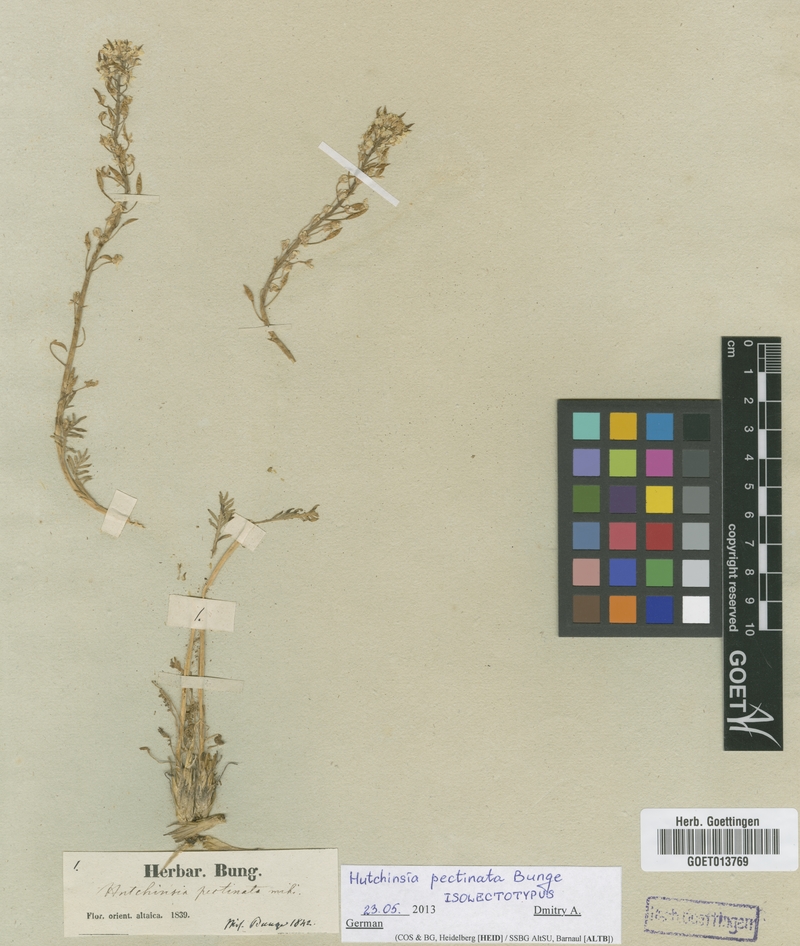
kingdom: Plantae
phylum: Tracheophyta
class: Magnoliopsida
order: Brassicales
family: Brassicaceae
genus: Smelowskia
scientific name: Smelowskia calycina
